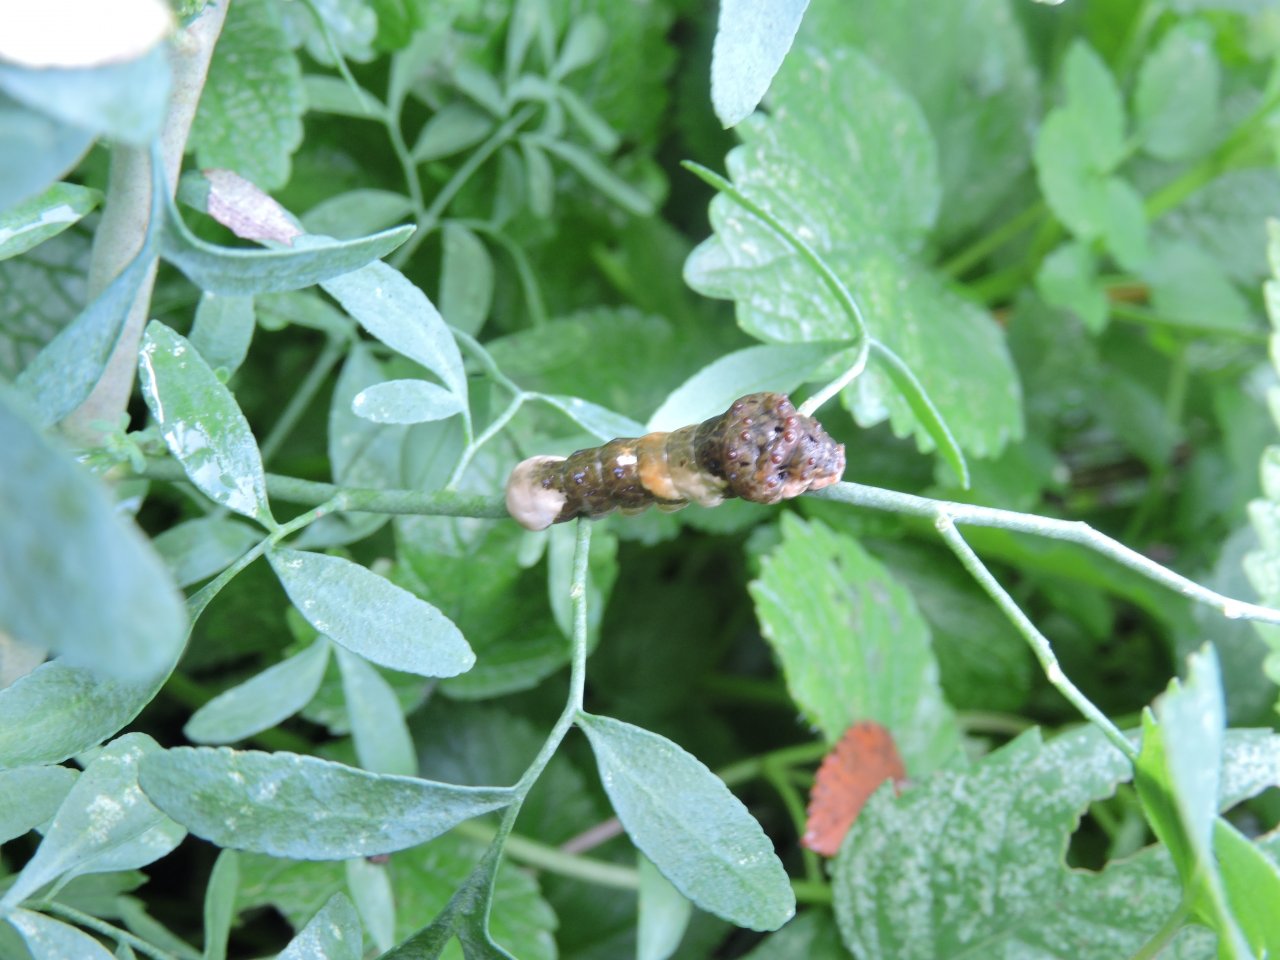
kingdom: Animalia
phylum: Arthropoda
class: Insecta
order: Lepidoptera
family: Papilionidae
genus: Papilio
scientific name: Papilio cresphontes
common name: Eastern Giant Swallowtail
